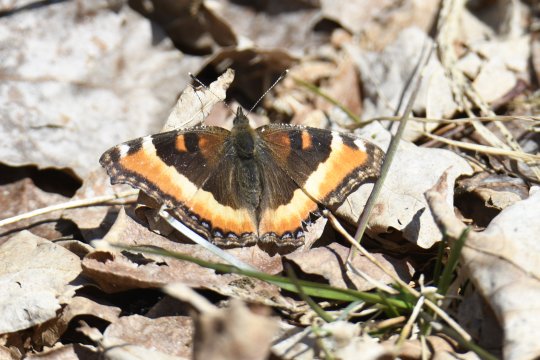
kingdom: Animalia
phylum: Arthropoda
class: Insecta
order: Lepidoptera
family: Nymphalidae
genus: Aglais
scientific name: Aglais milberti
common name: Milbert's Tortoiseshell
